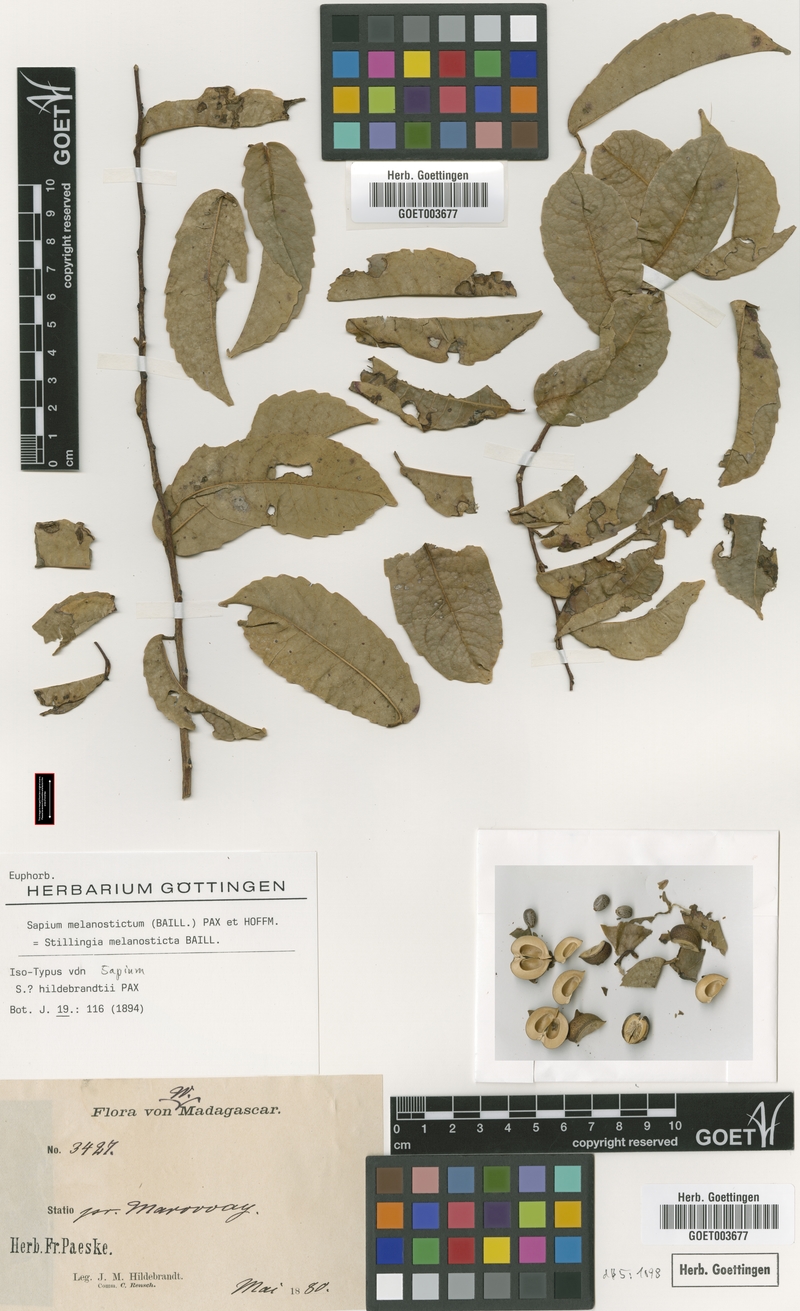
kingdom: Plantae
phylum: Tracheophyta
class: Magnoliopsida
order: Malpighiales
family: Euphorbiaceae
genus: Sclerocroton
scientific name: Sclerocroton melanostictus
